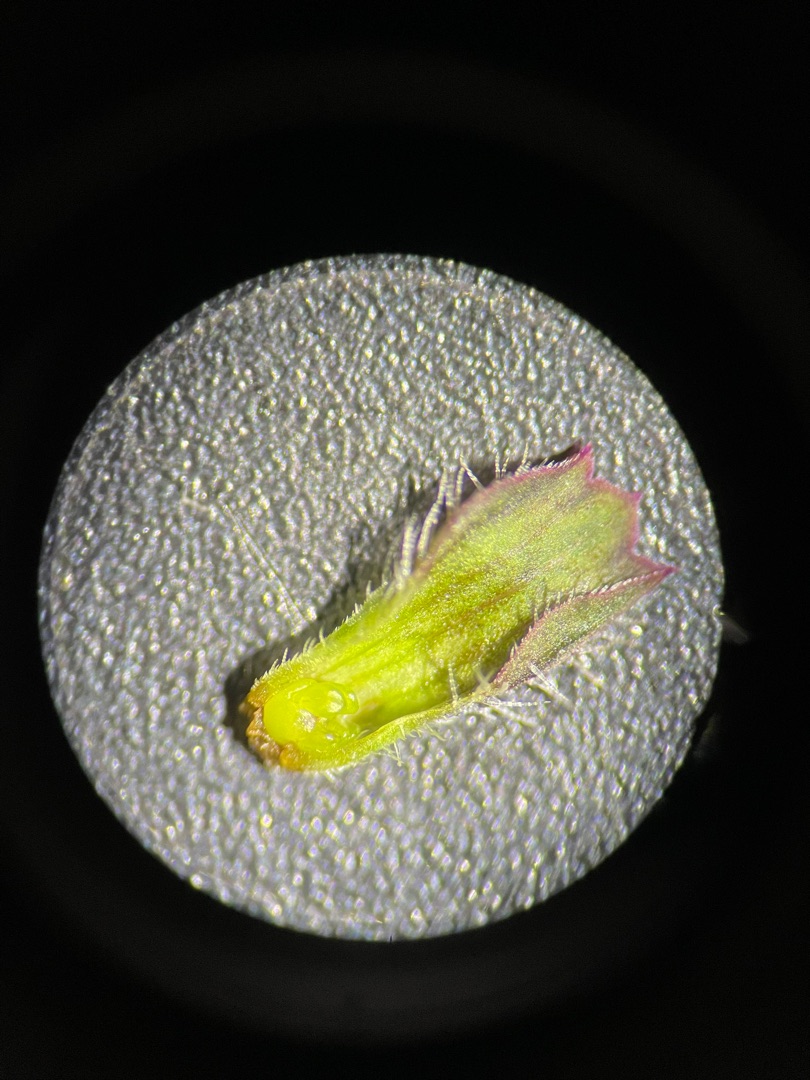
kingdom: Plantae
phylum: Tracheophyta
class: Magnoliopsida
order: Lamiales
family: Lamiaceae
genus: Prunella
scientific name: Prunella vulgaris
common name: Almindelig brunelle
